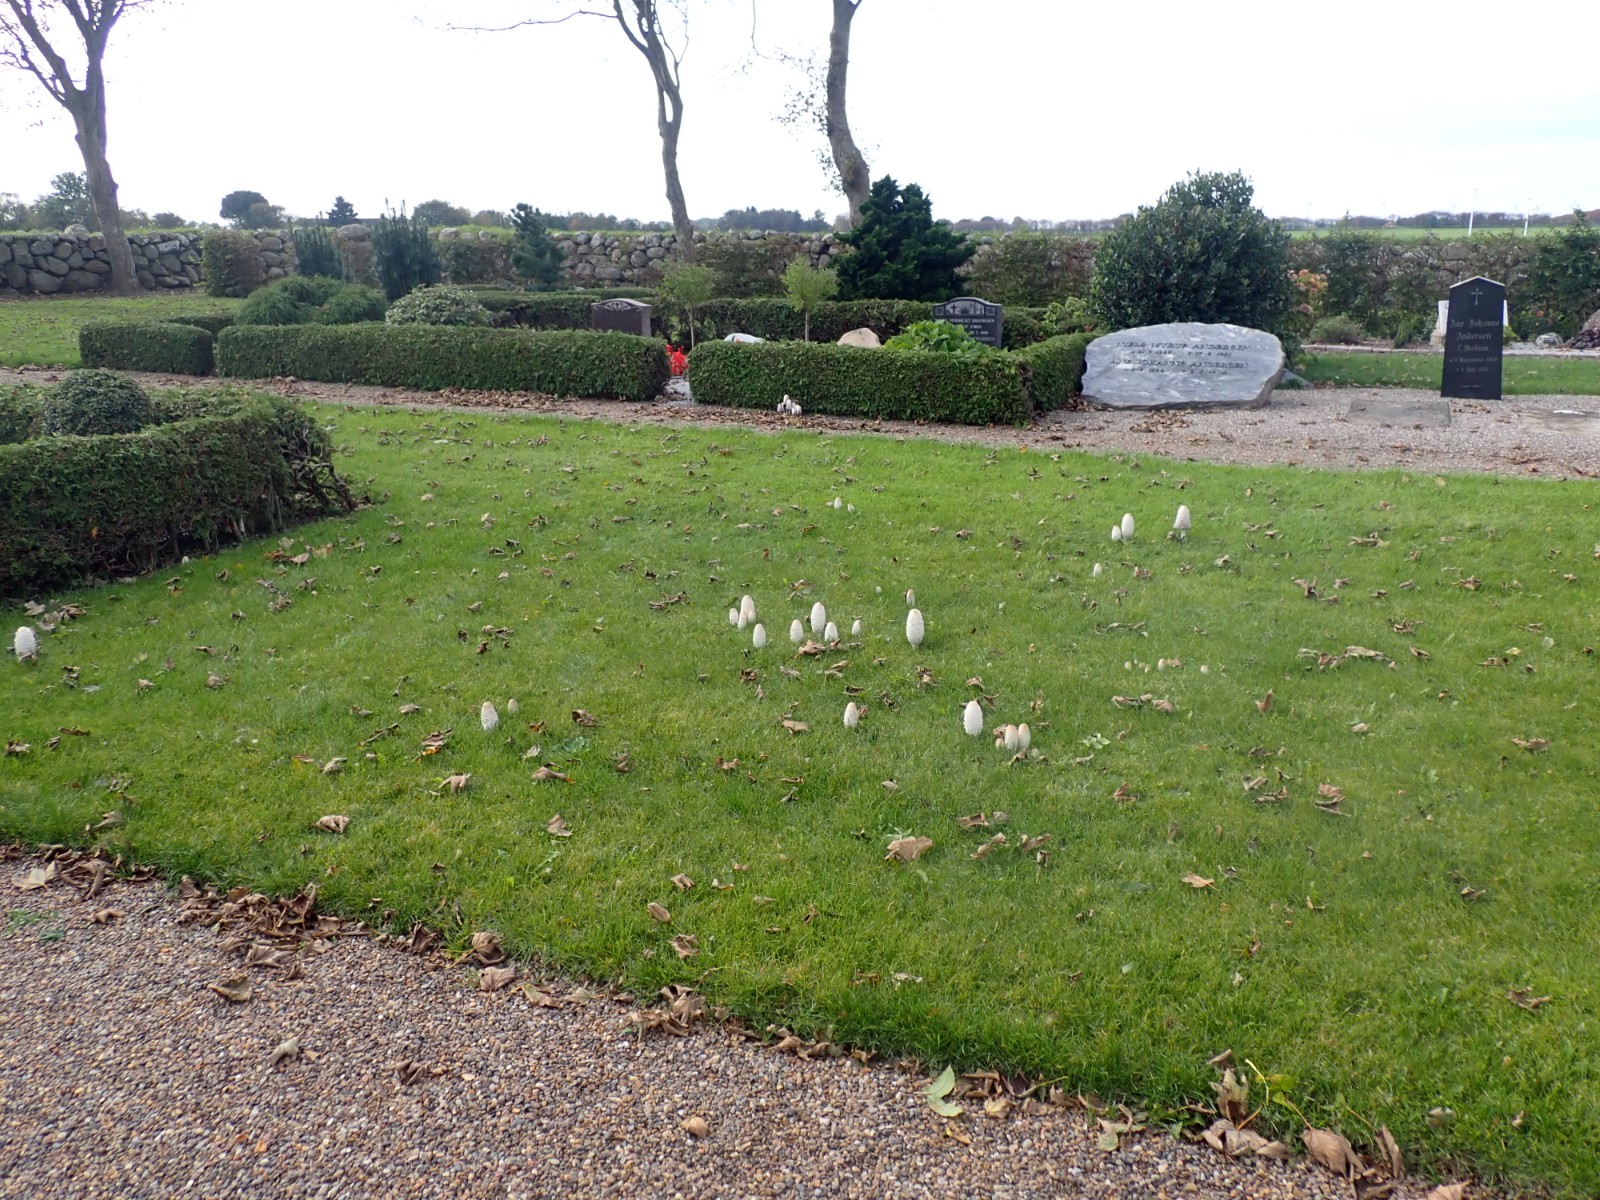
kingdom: Fungi
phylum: Basidiomycota
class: Agaricomycetes
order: Agaricales
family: Agaricaceae
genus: Coprinus
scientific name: Coprinus comatus
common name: stor parykhat
